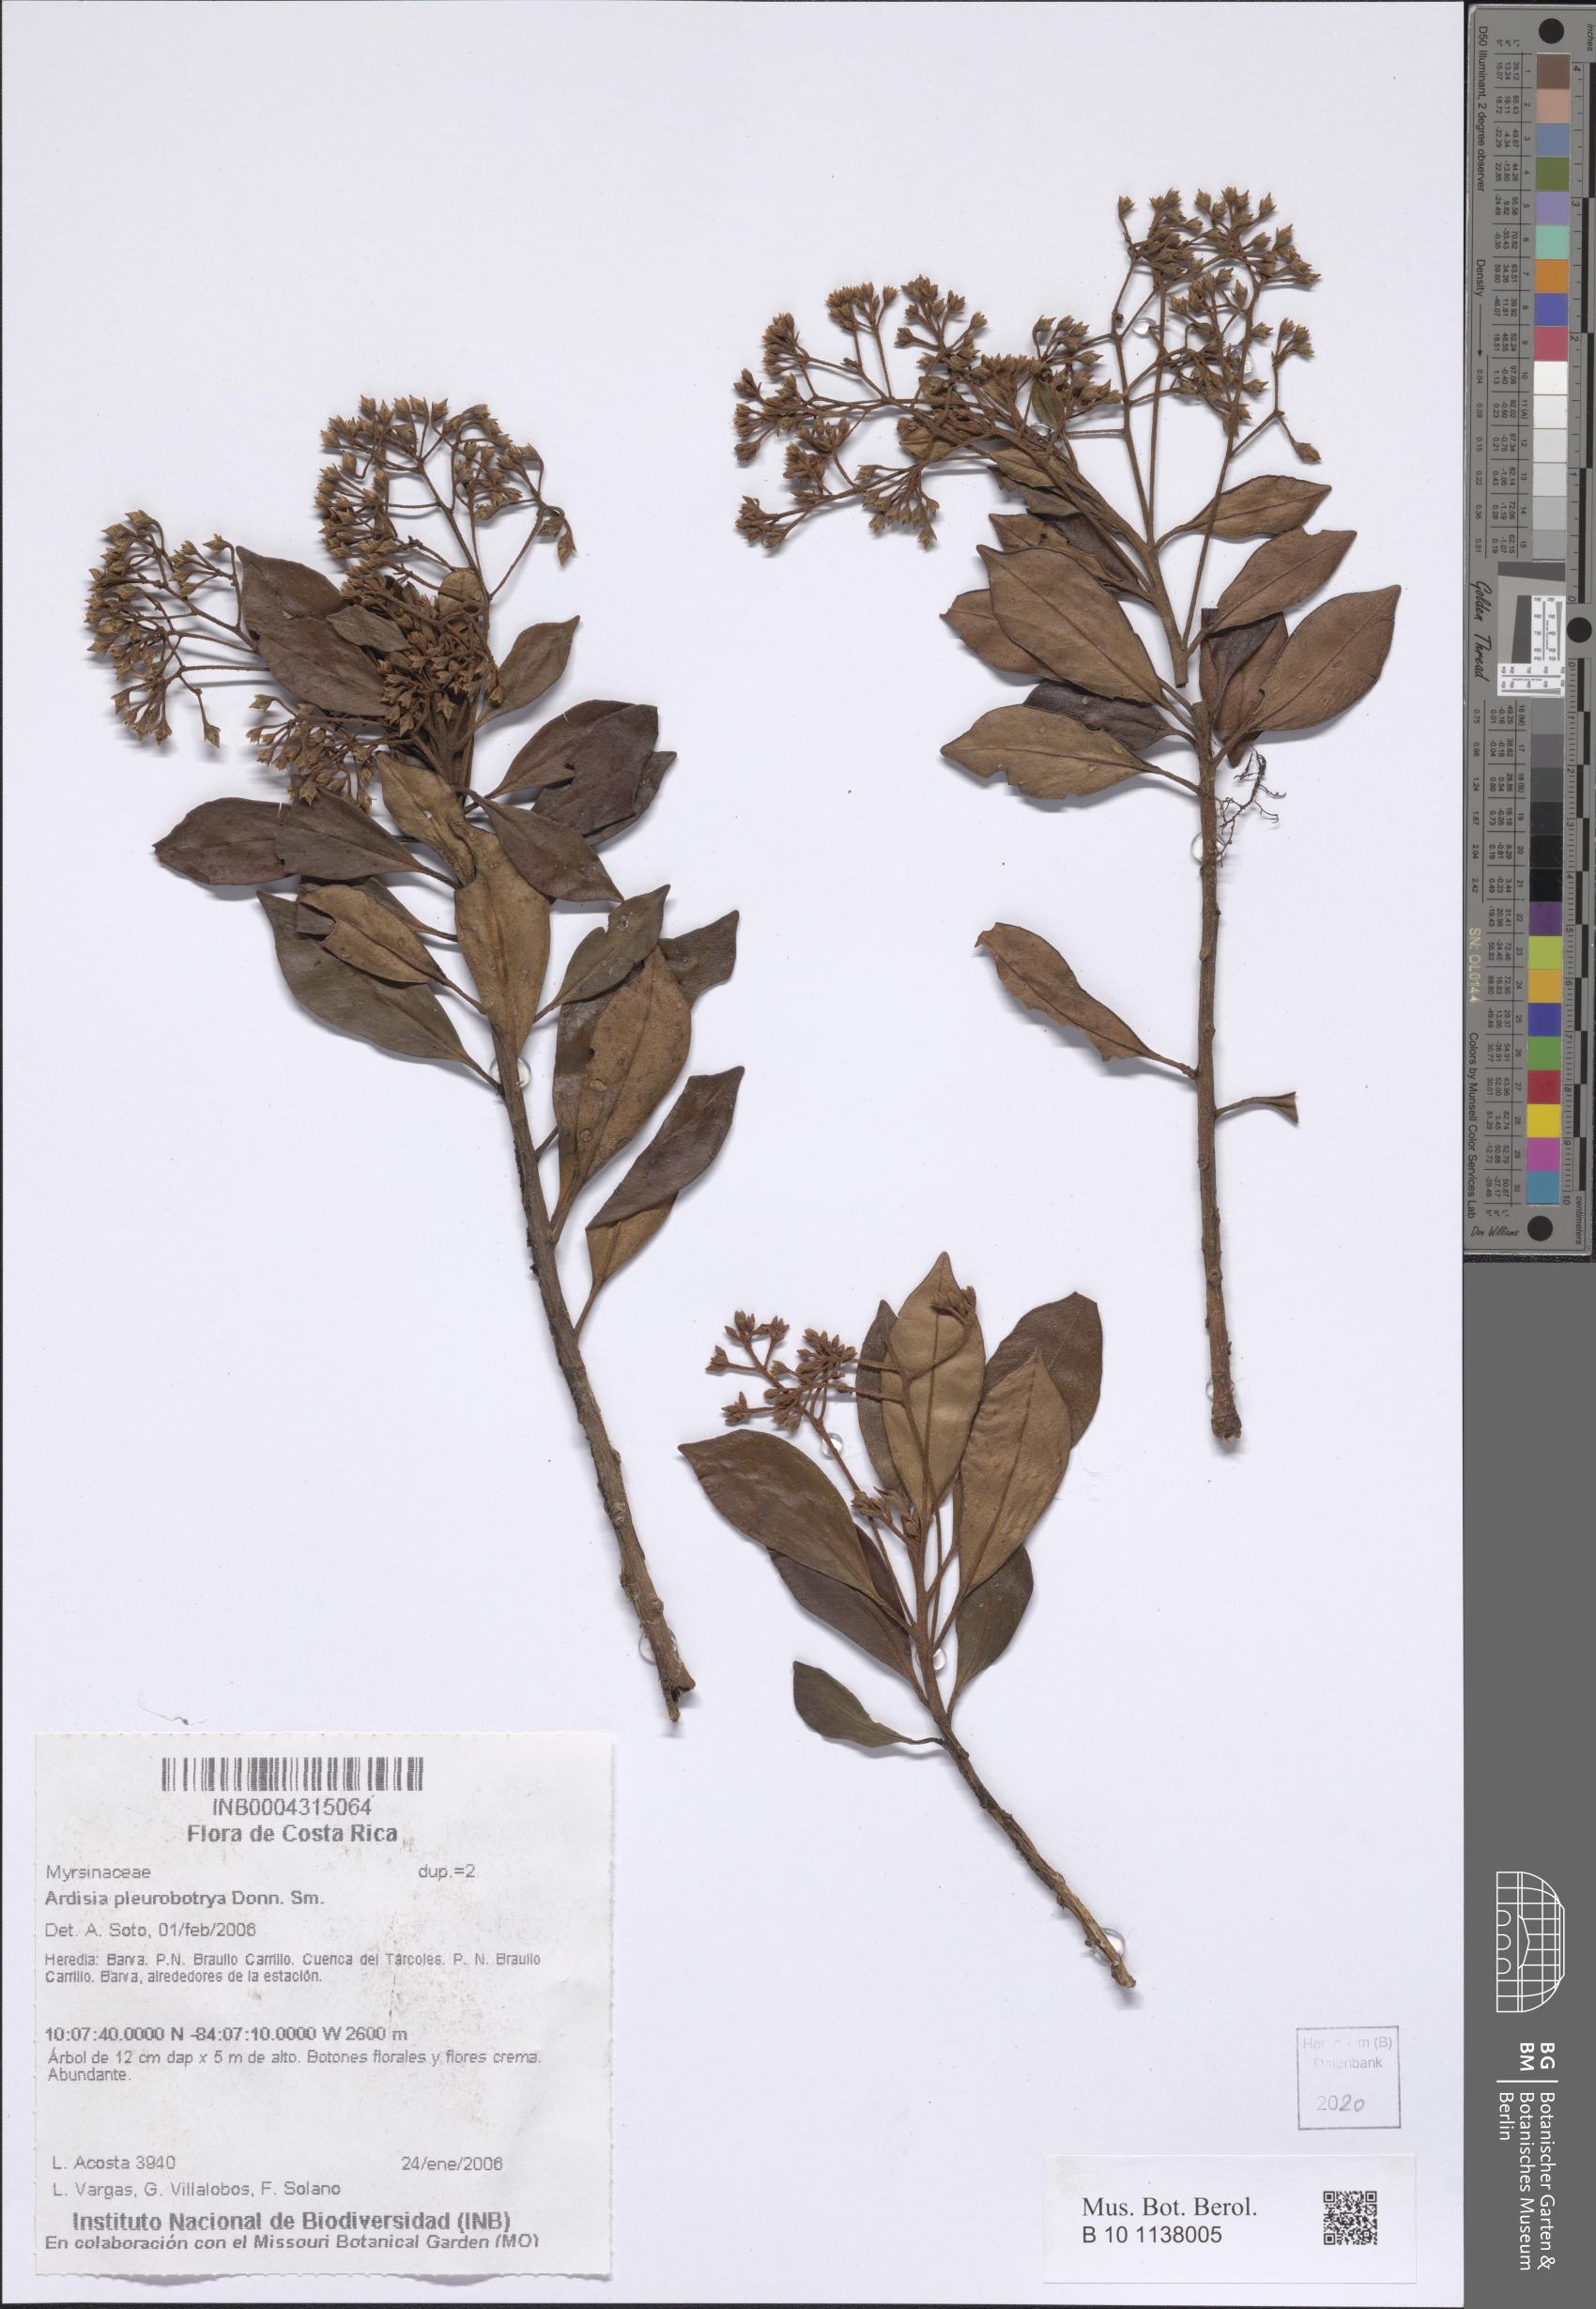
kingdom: Plantae
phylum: Tracheophyta
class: Magnoliopsida
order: Ericales
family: Primulaceae
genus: Ardisia
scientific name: Ardisia pleurobotrya
